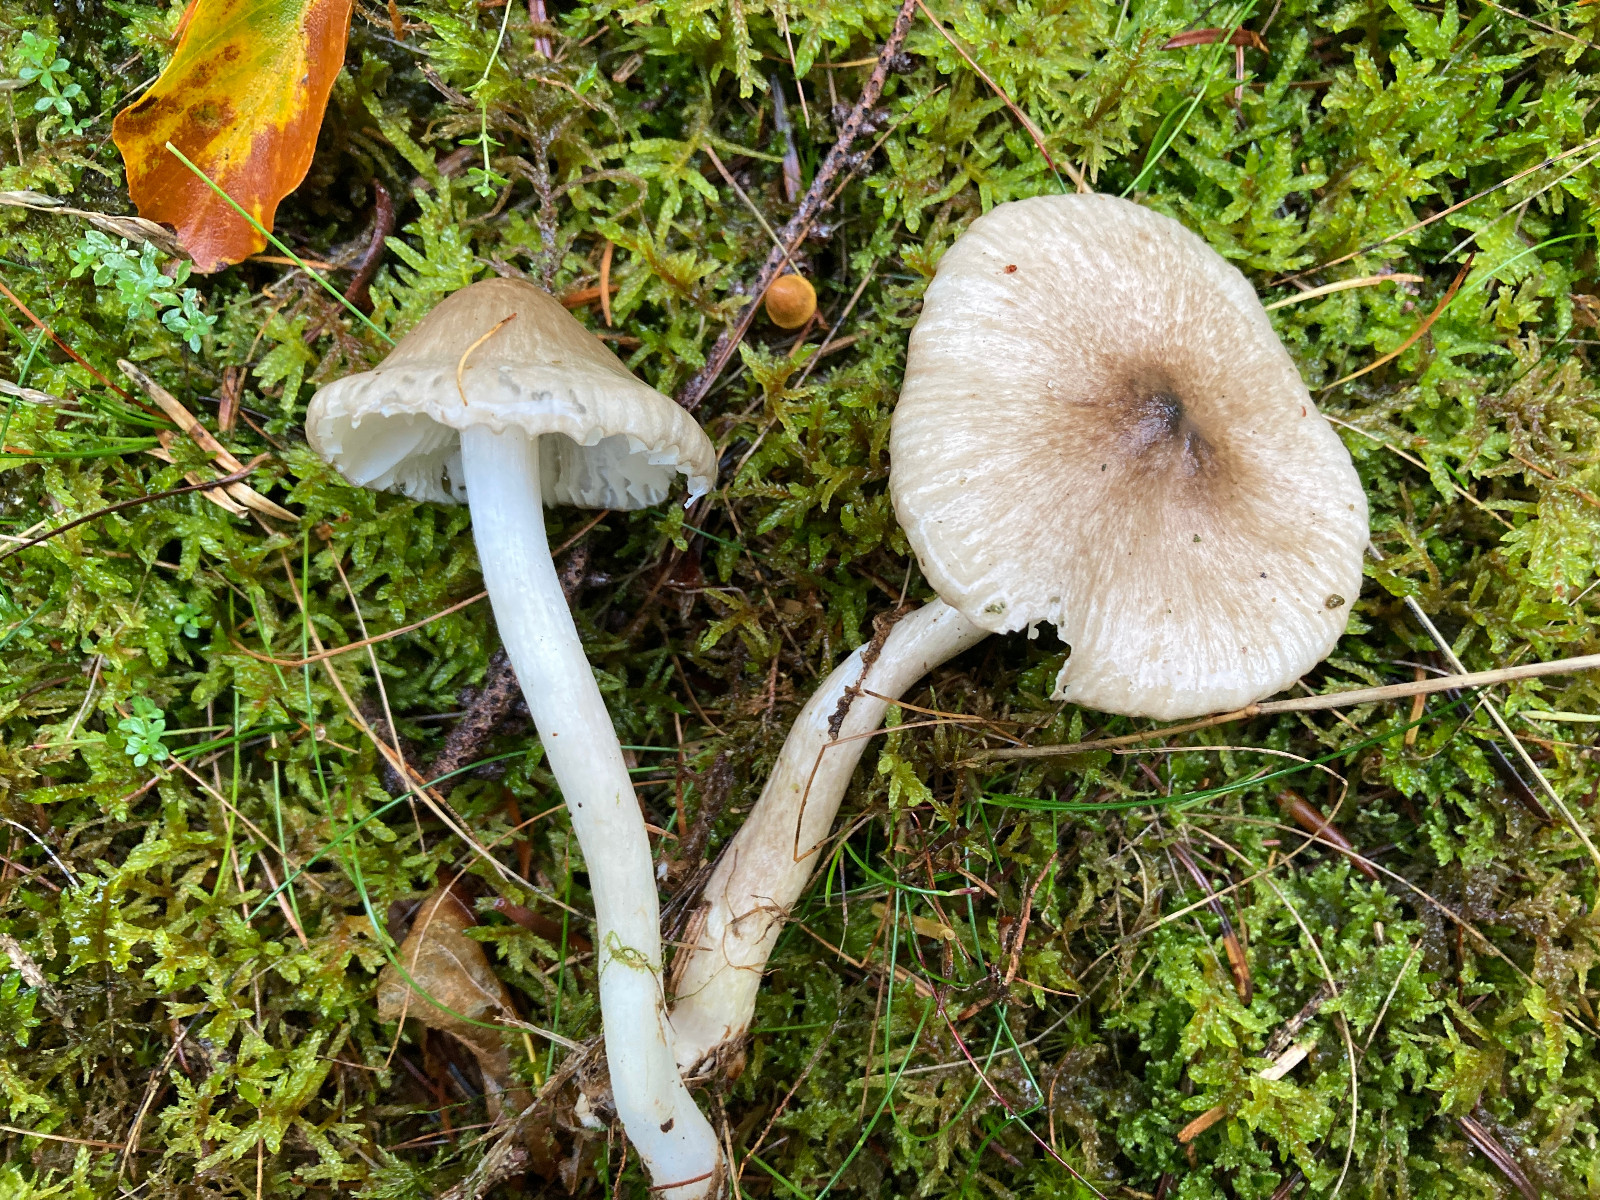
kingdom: Fungi
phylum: Basidiomycota
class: Agaricomycetes
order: Agaricales
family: Hygrophoraceae
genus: Hygrophorus
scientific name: Hygrophorus pustulatus
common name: mørkprikket sneglehat
